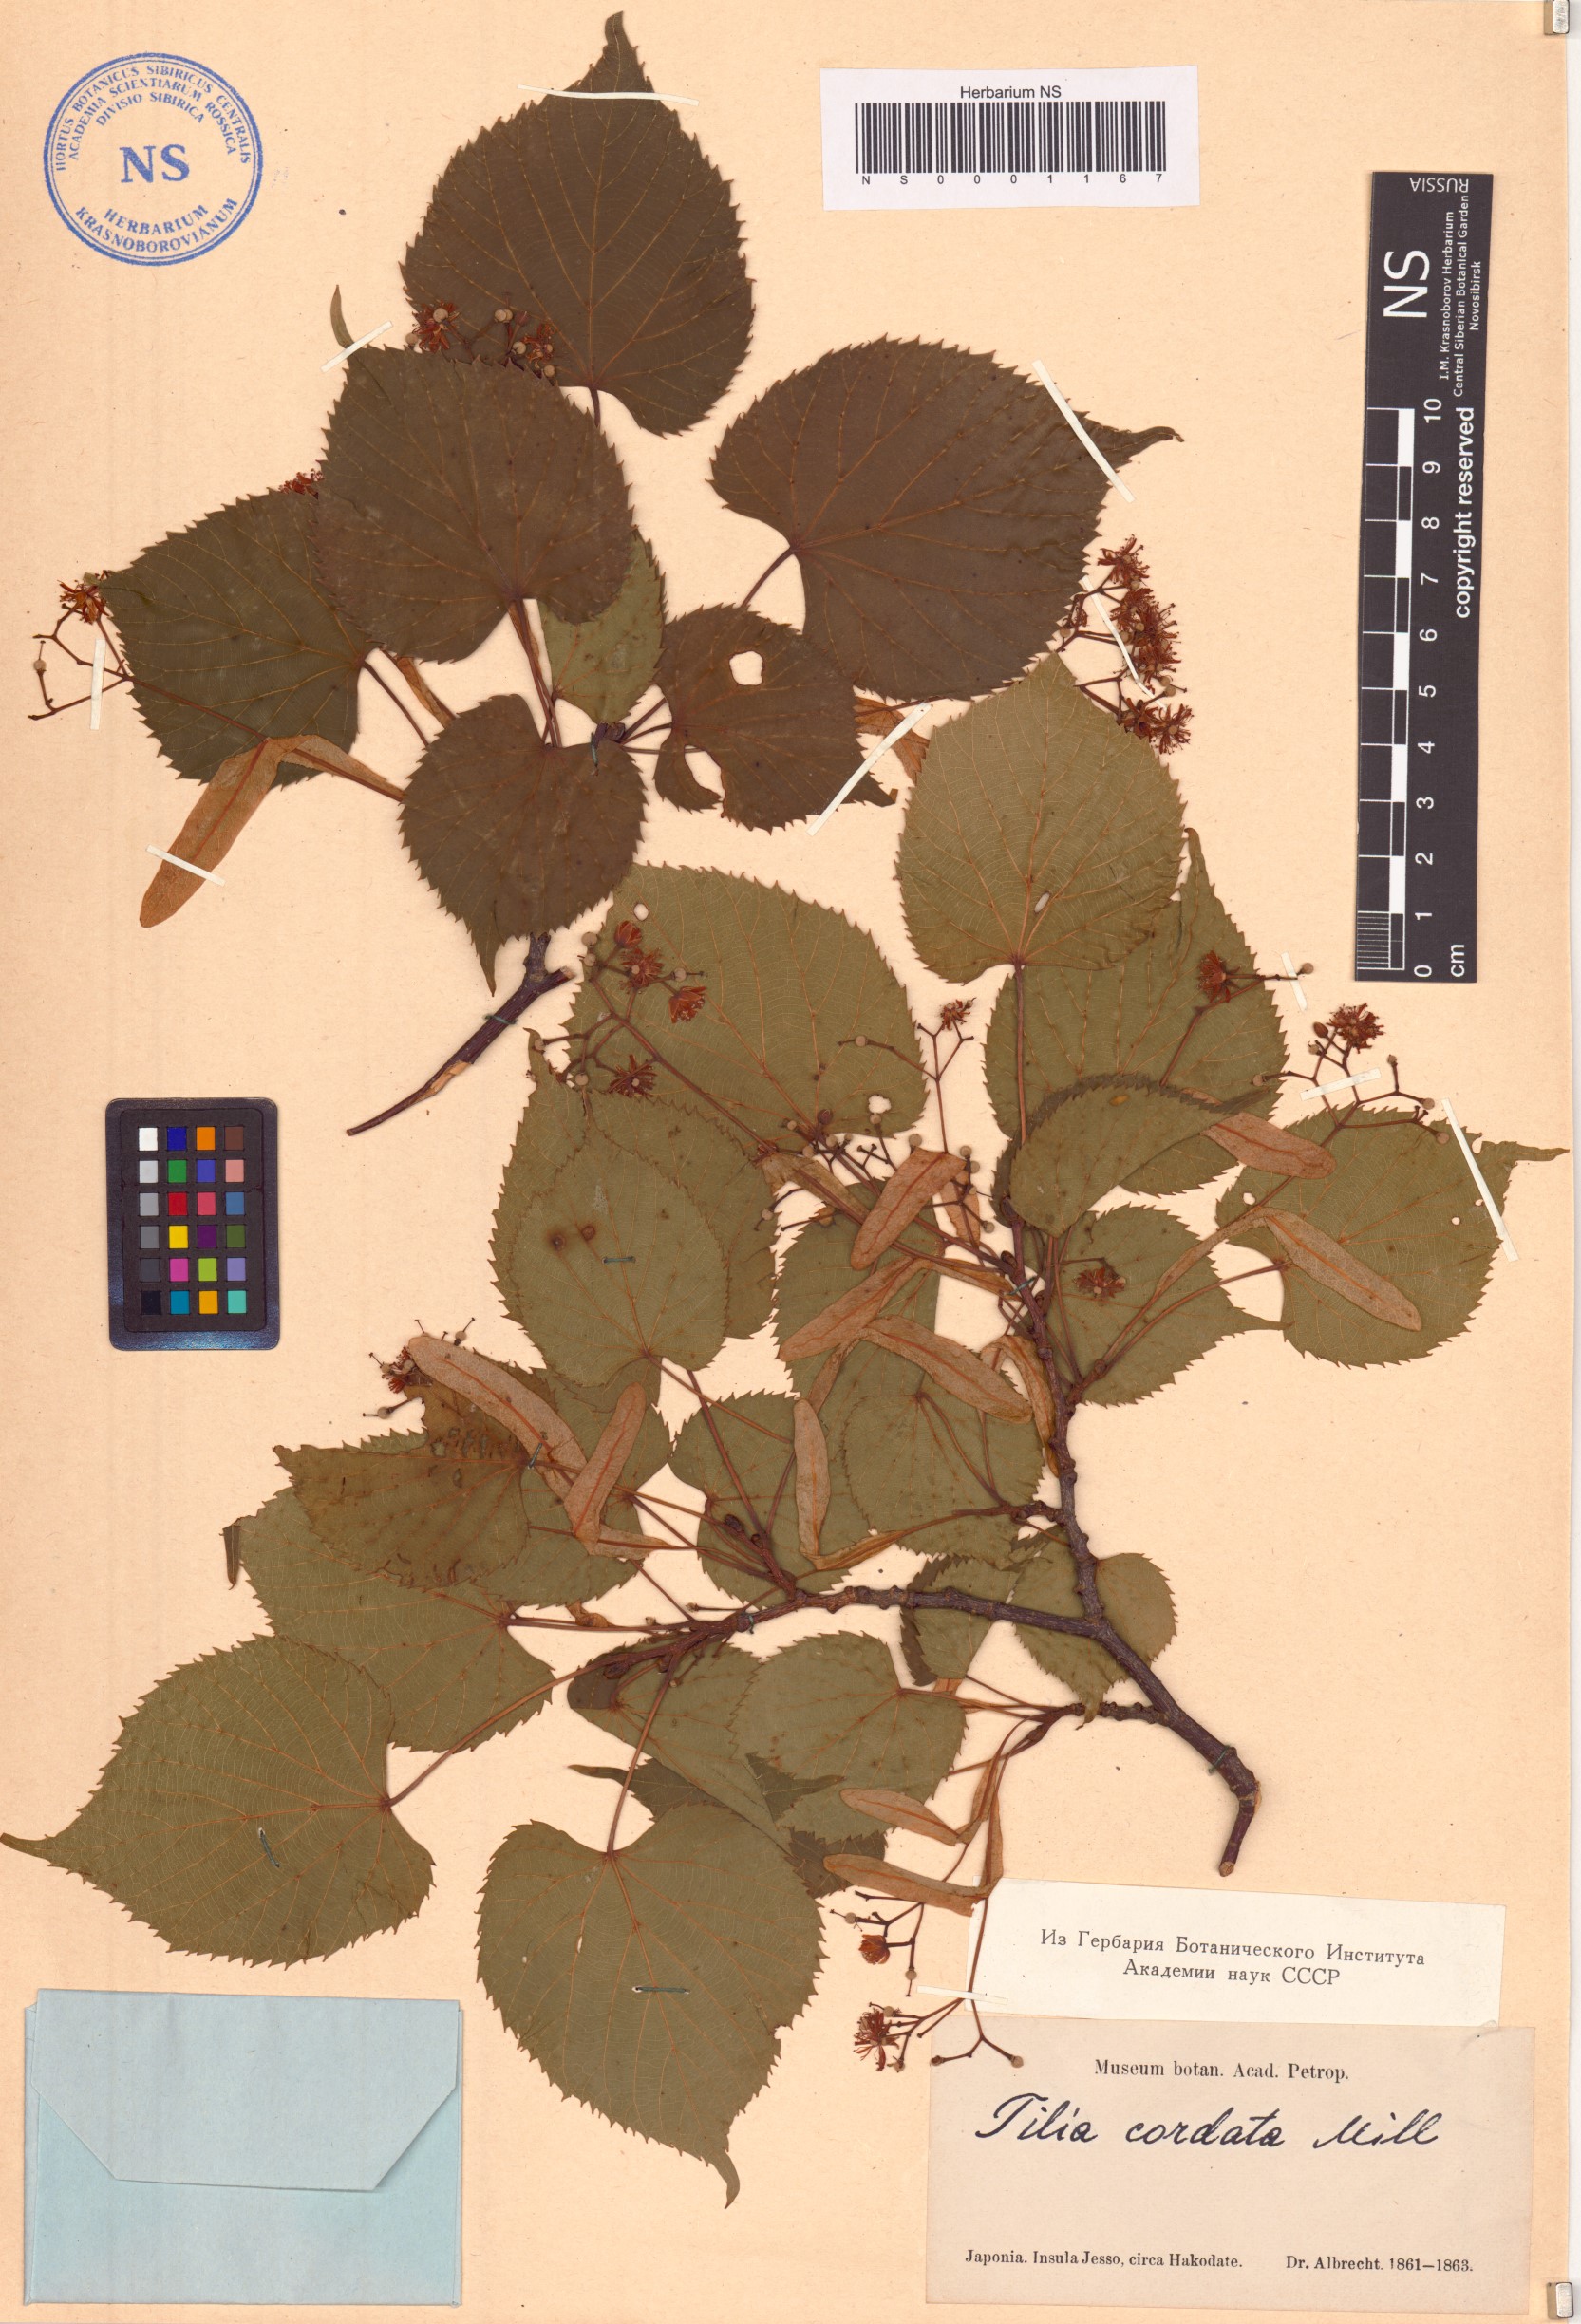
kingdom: Plantae
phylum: Tracheophyta
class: Magnoliopsida
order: Malvales
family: Malvaceae
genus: Tilia
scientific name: Tilia cordata
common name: Small-leaved lime
